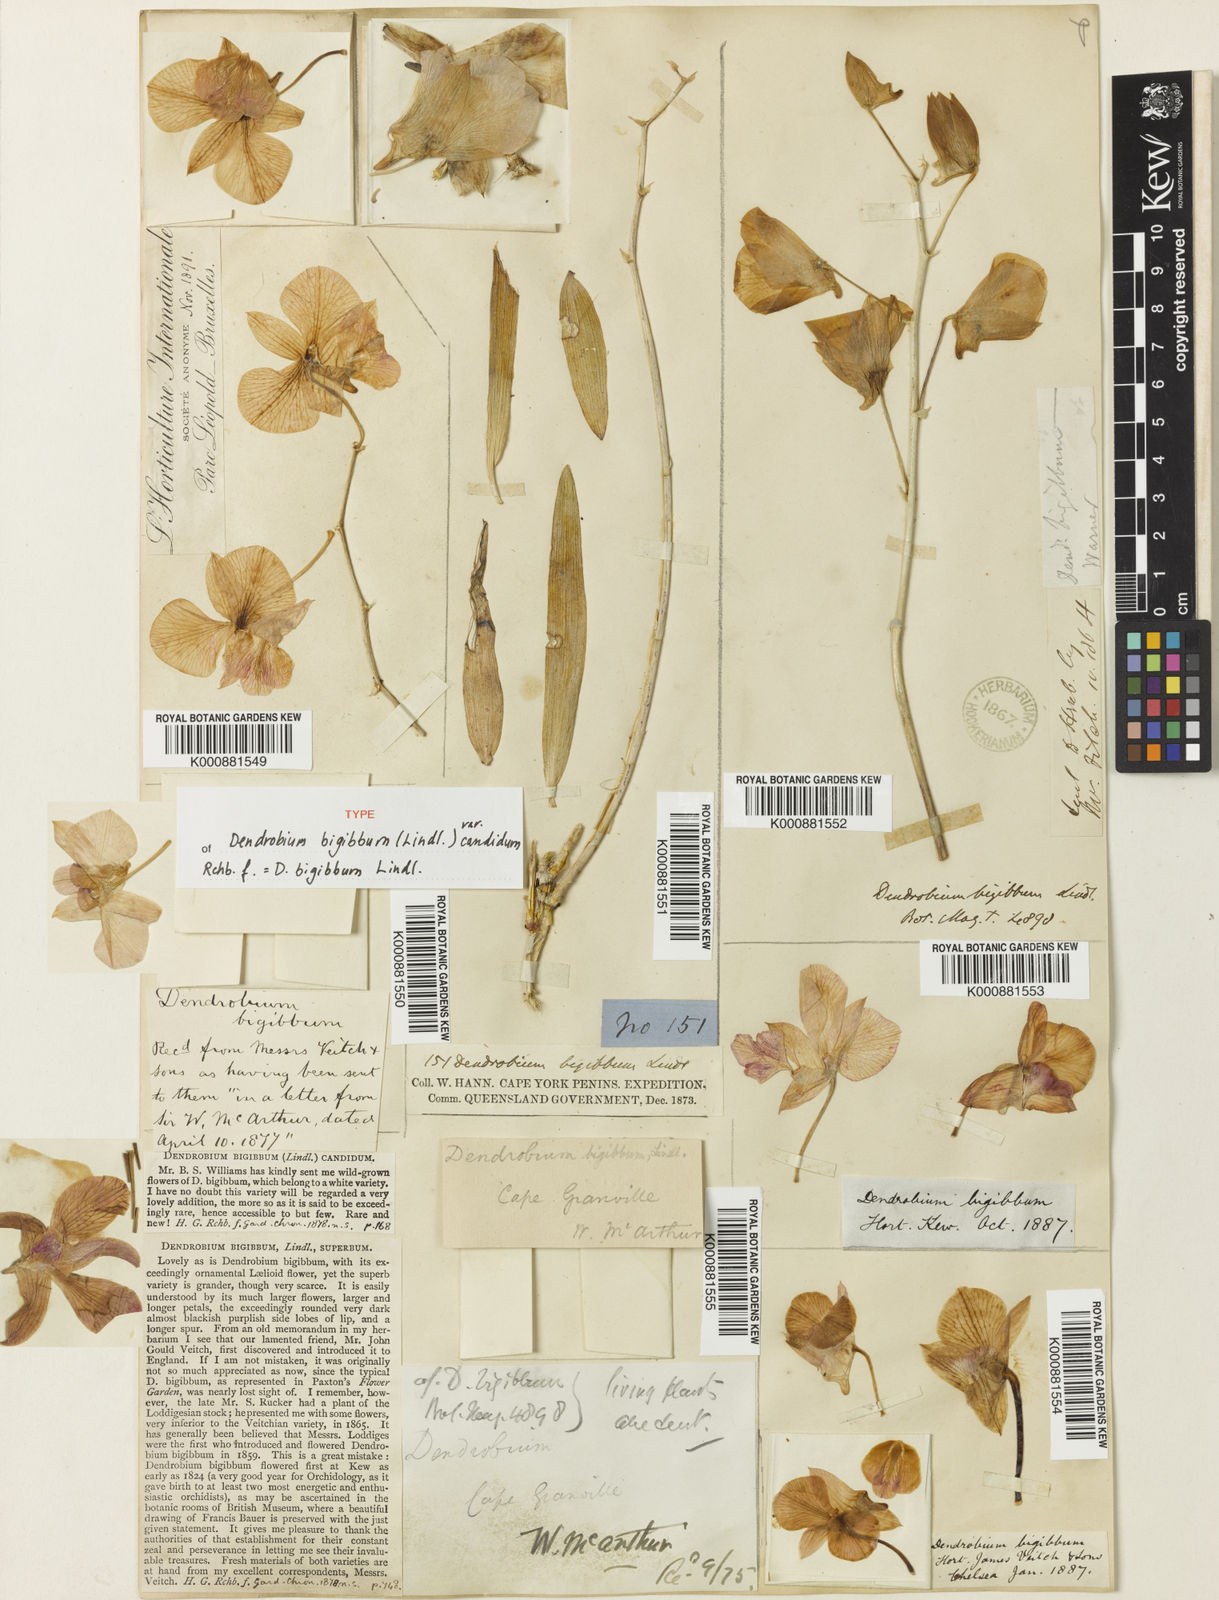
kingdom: Plantae
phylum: Tracheophyta
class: Liliopsida
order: Asparagales
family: Orchidaceae
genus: Dendrobium
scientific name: Dendrobium bigibbum
